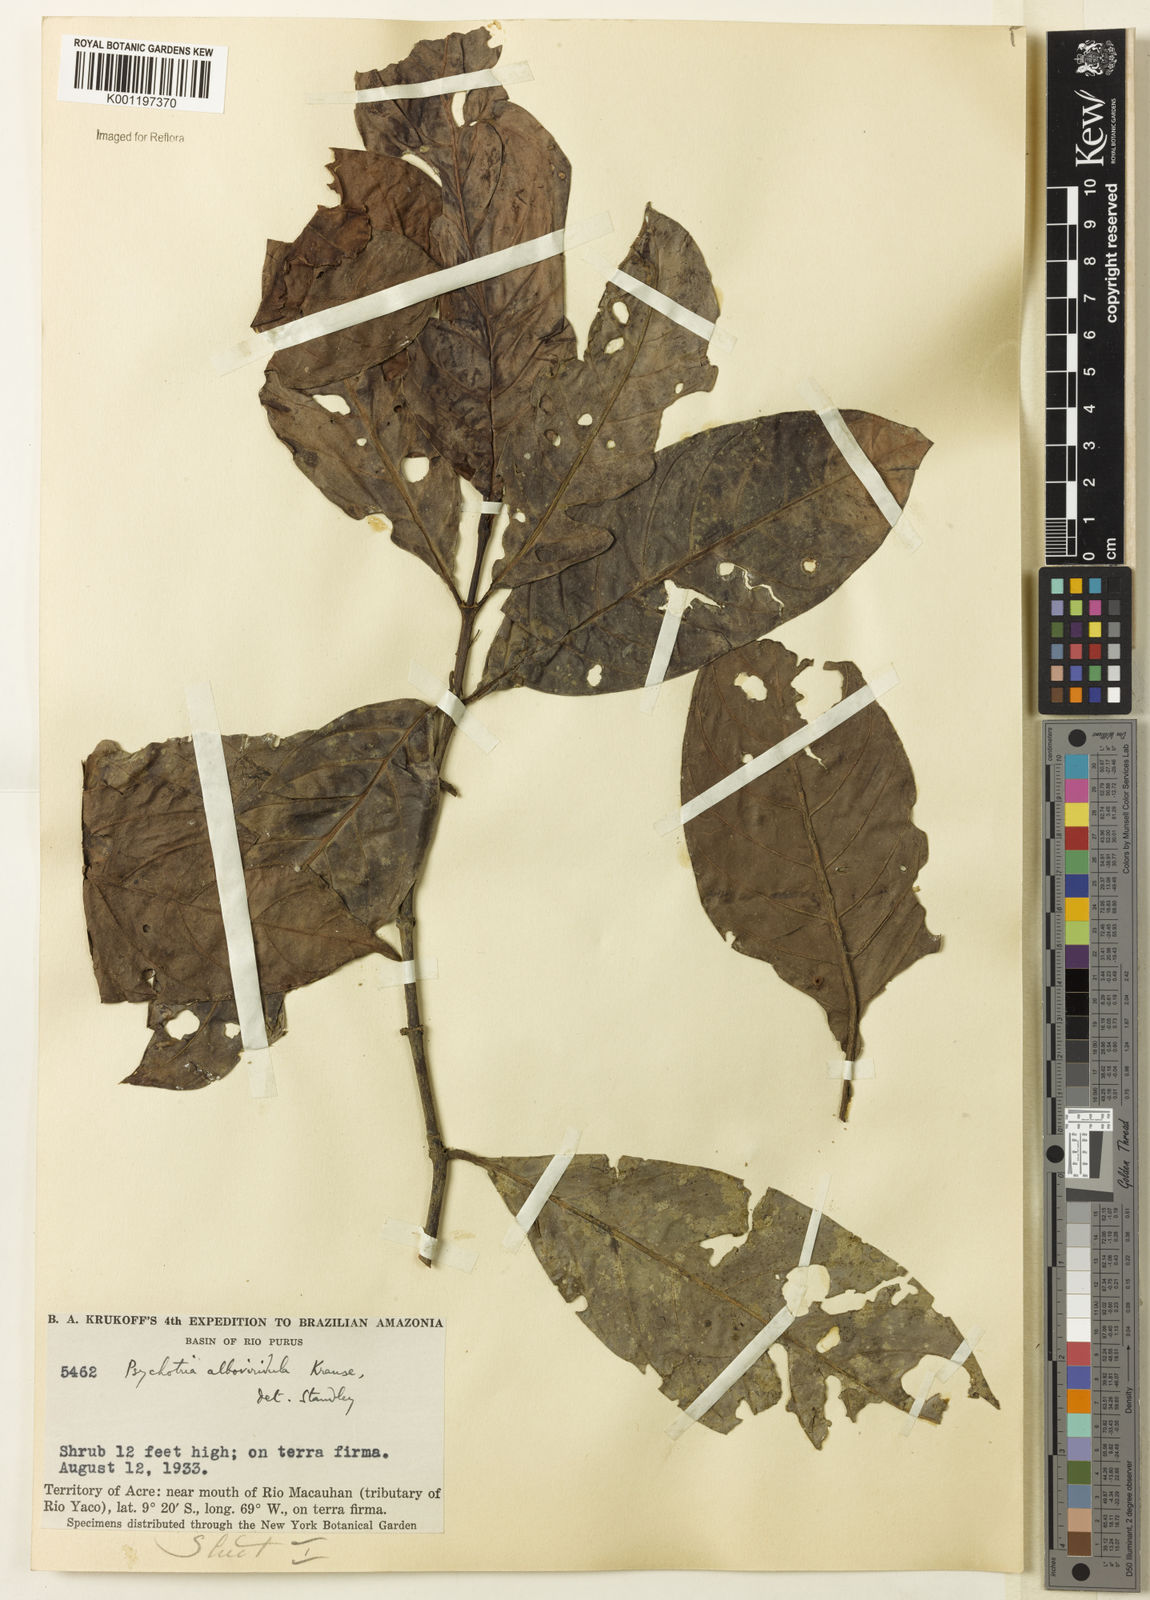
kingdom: Plantae
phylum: Tracheophyta
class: Magnoliopsida
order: Gentianales
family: Rubiaceae
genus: Psychotria
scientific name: Psychotria remota
